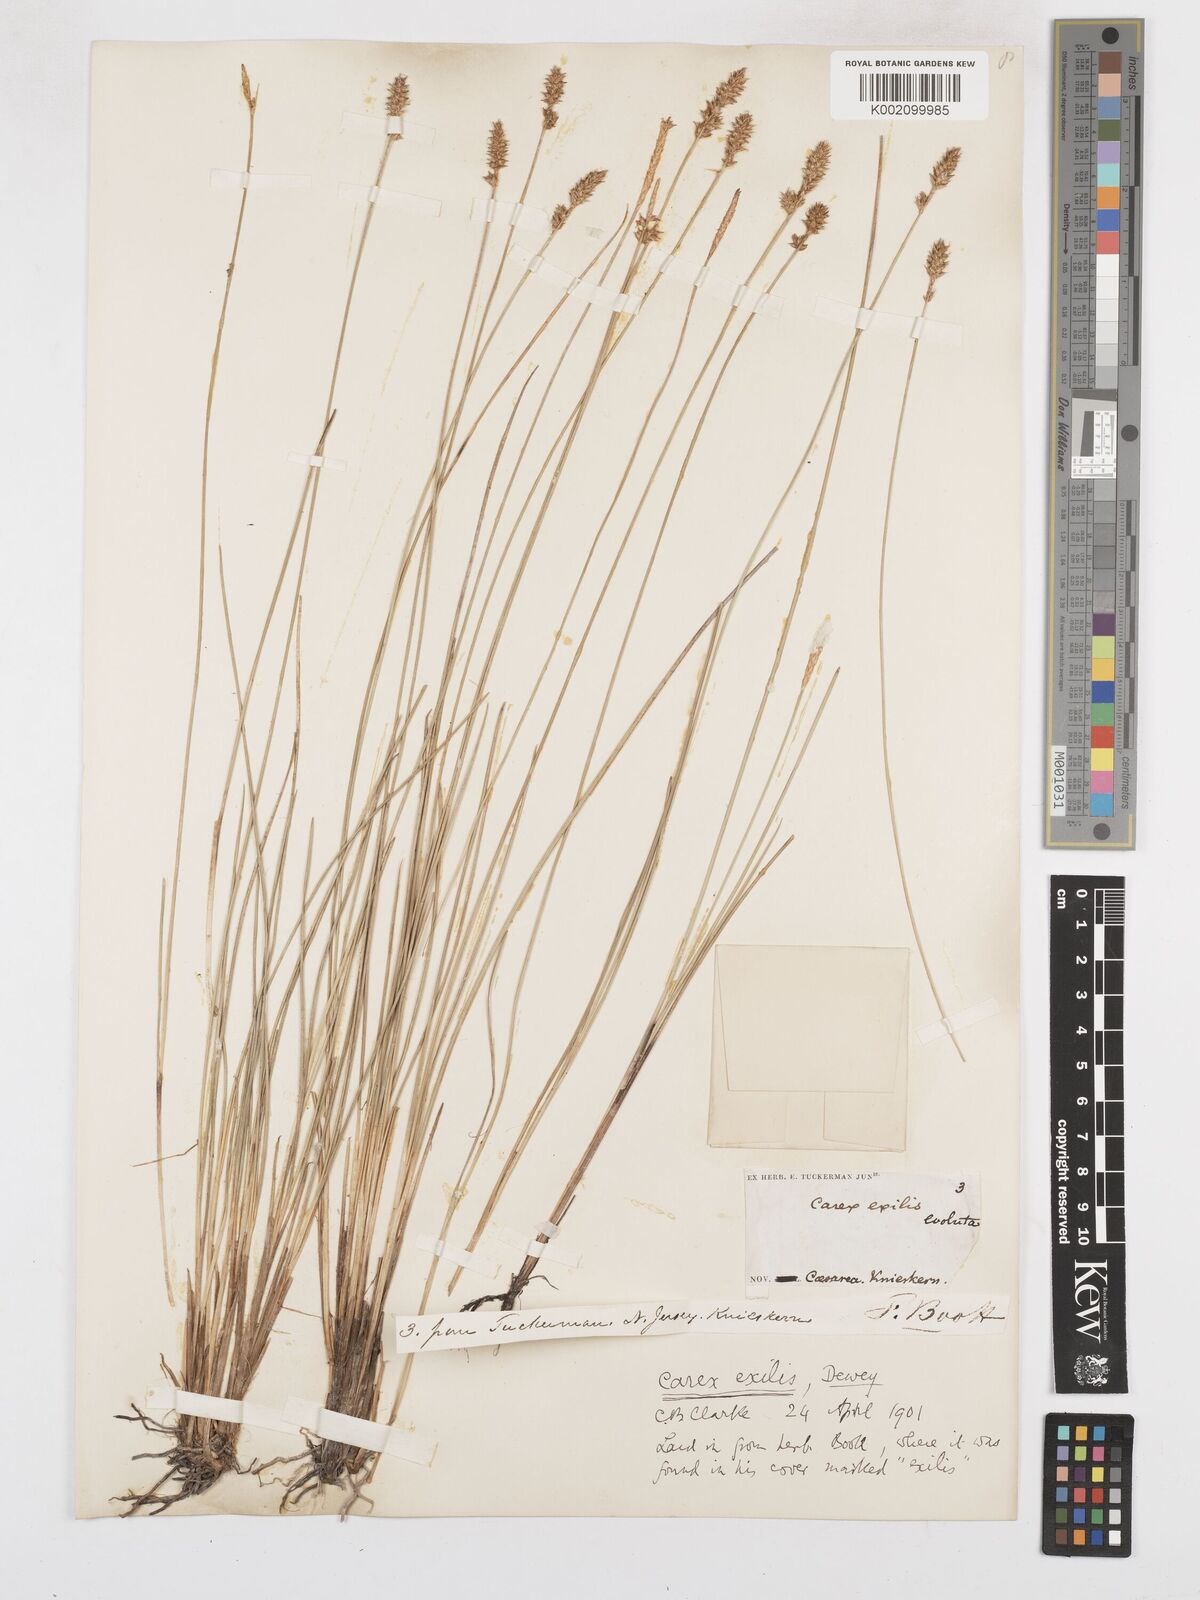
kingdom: Plantae
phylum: Tracheophyta
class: Liliopsida
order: Poales
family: Cyperaceae
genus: Carex
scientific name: Carex exilis
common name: Coastal sedge
